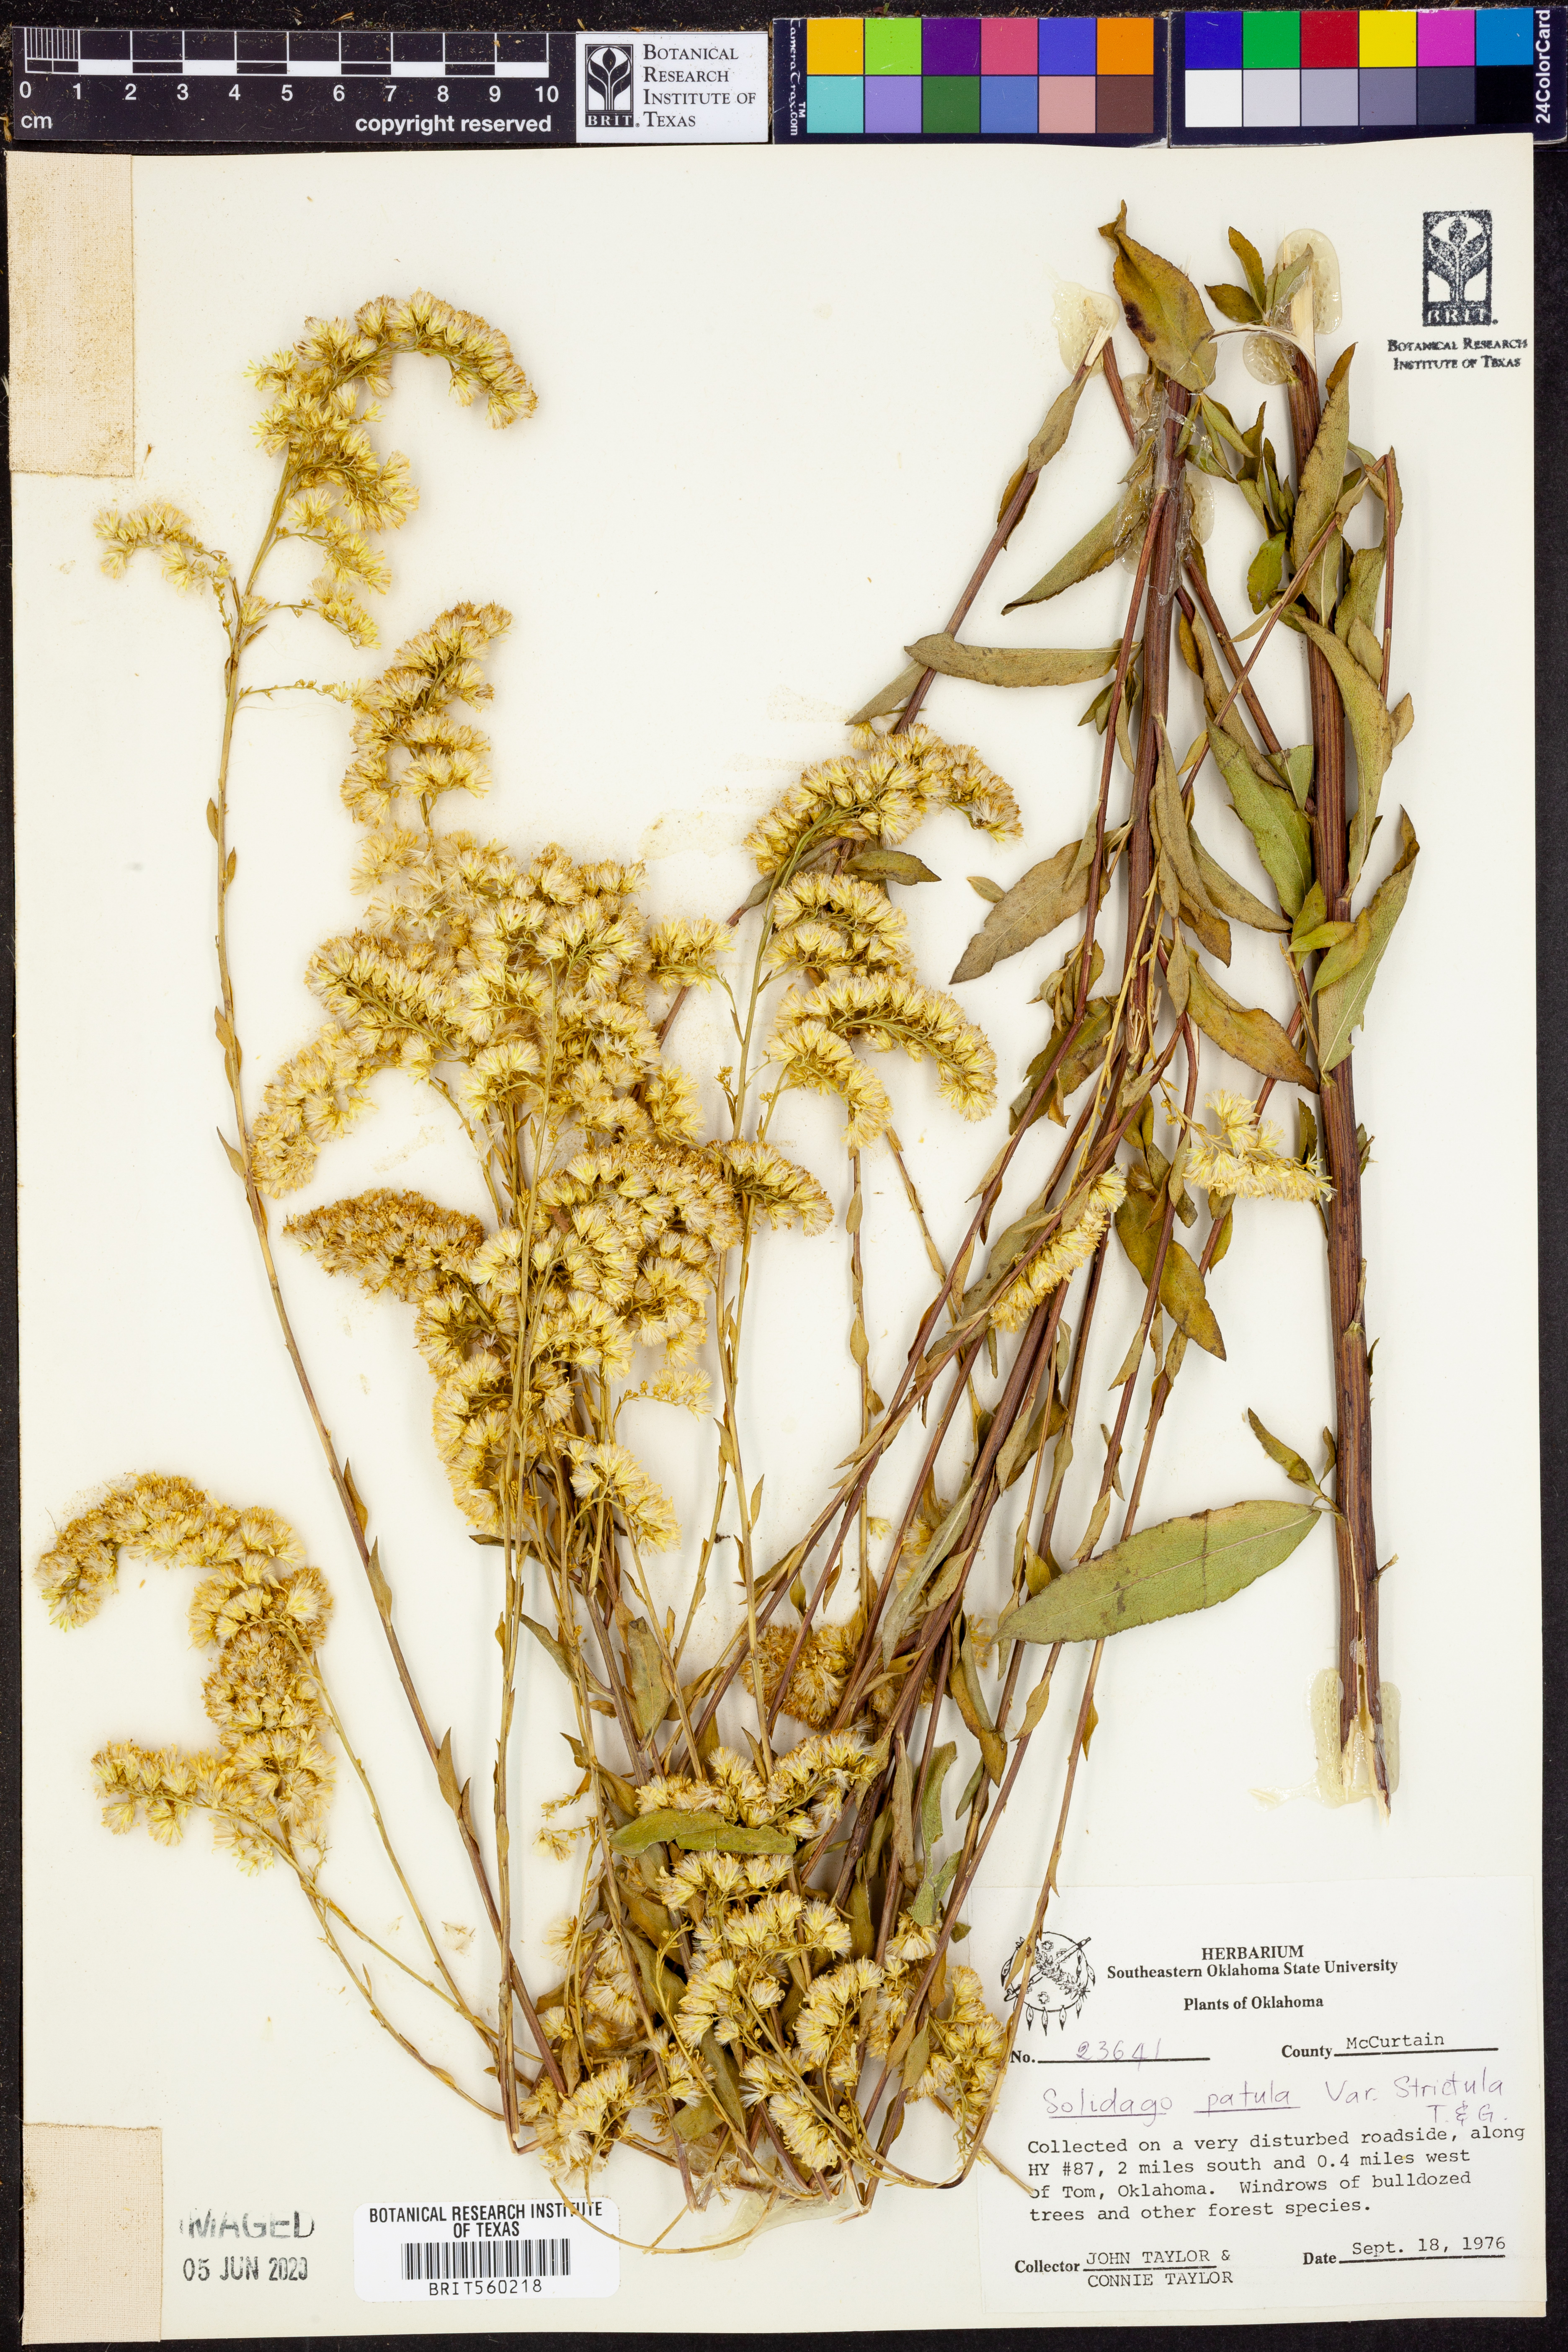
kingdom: Plantae
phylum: Tracheophyta
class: Magnoliopsida
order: Asterales
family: Asteraceae
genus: Solidago
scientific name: Solidago patula
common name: Rough-leaf goldenrod
